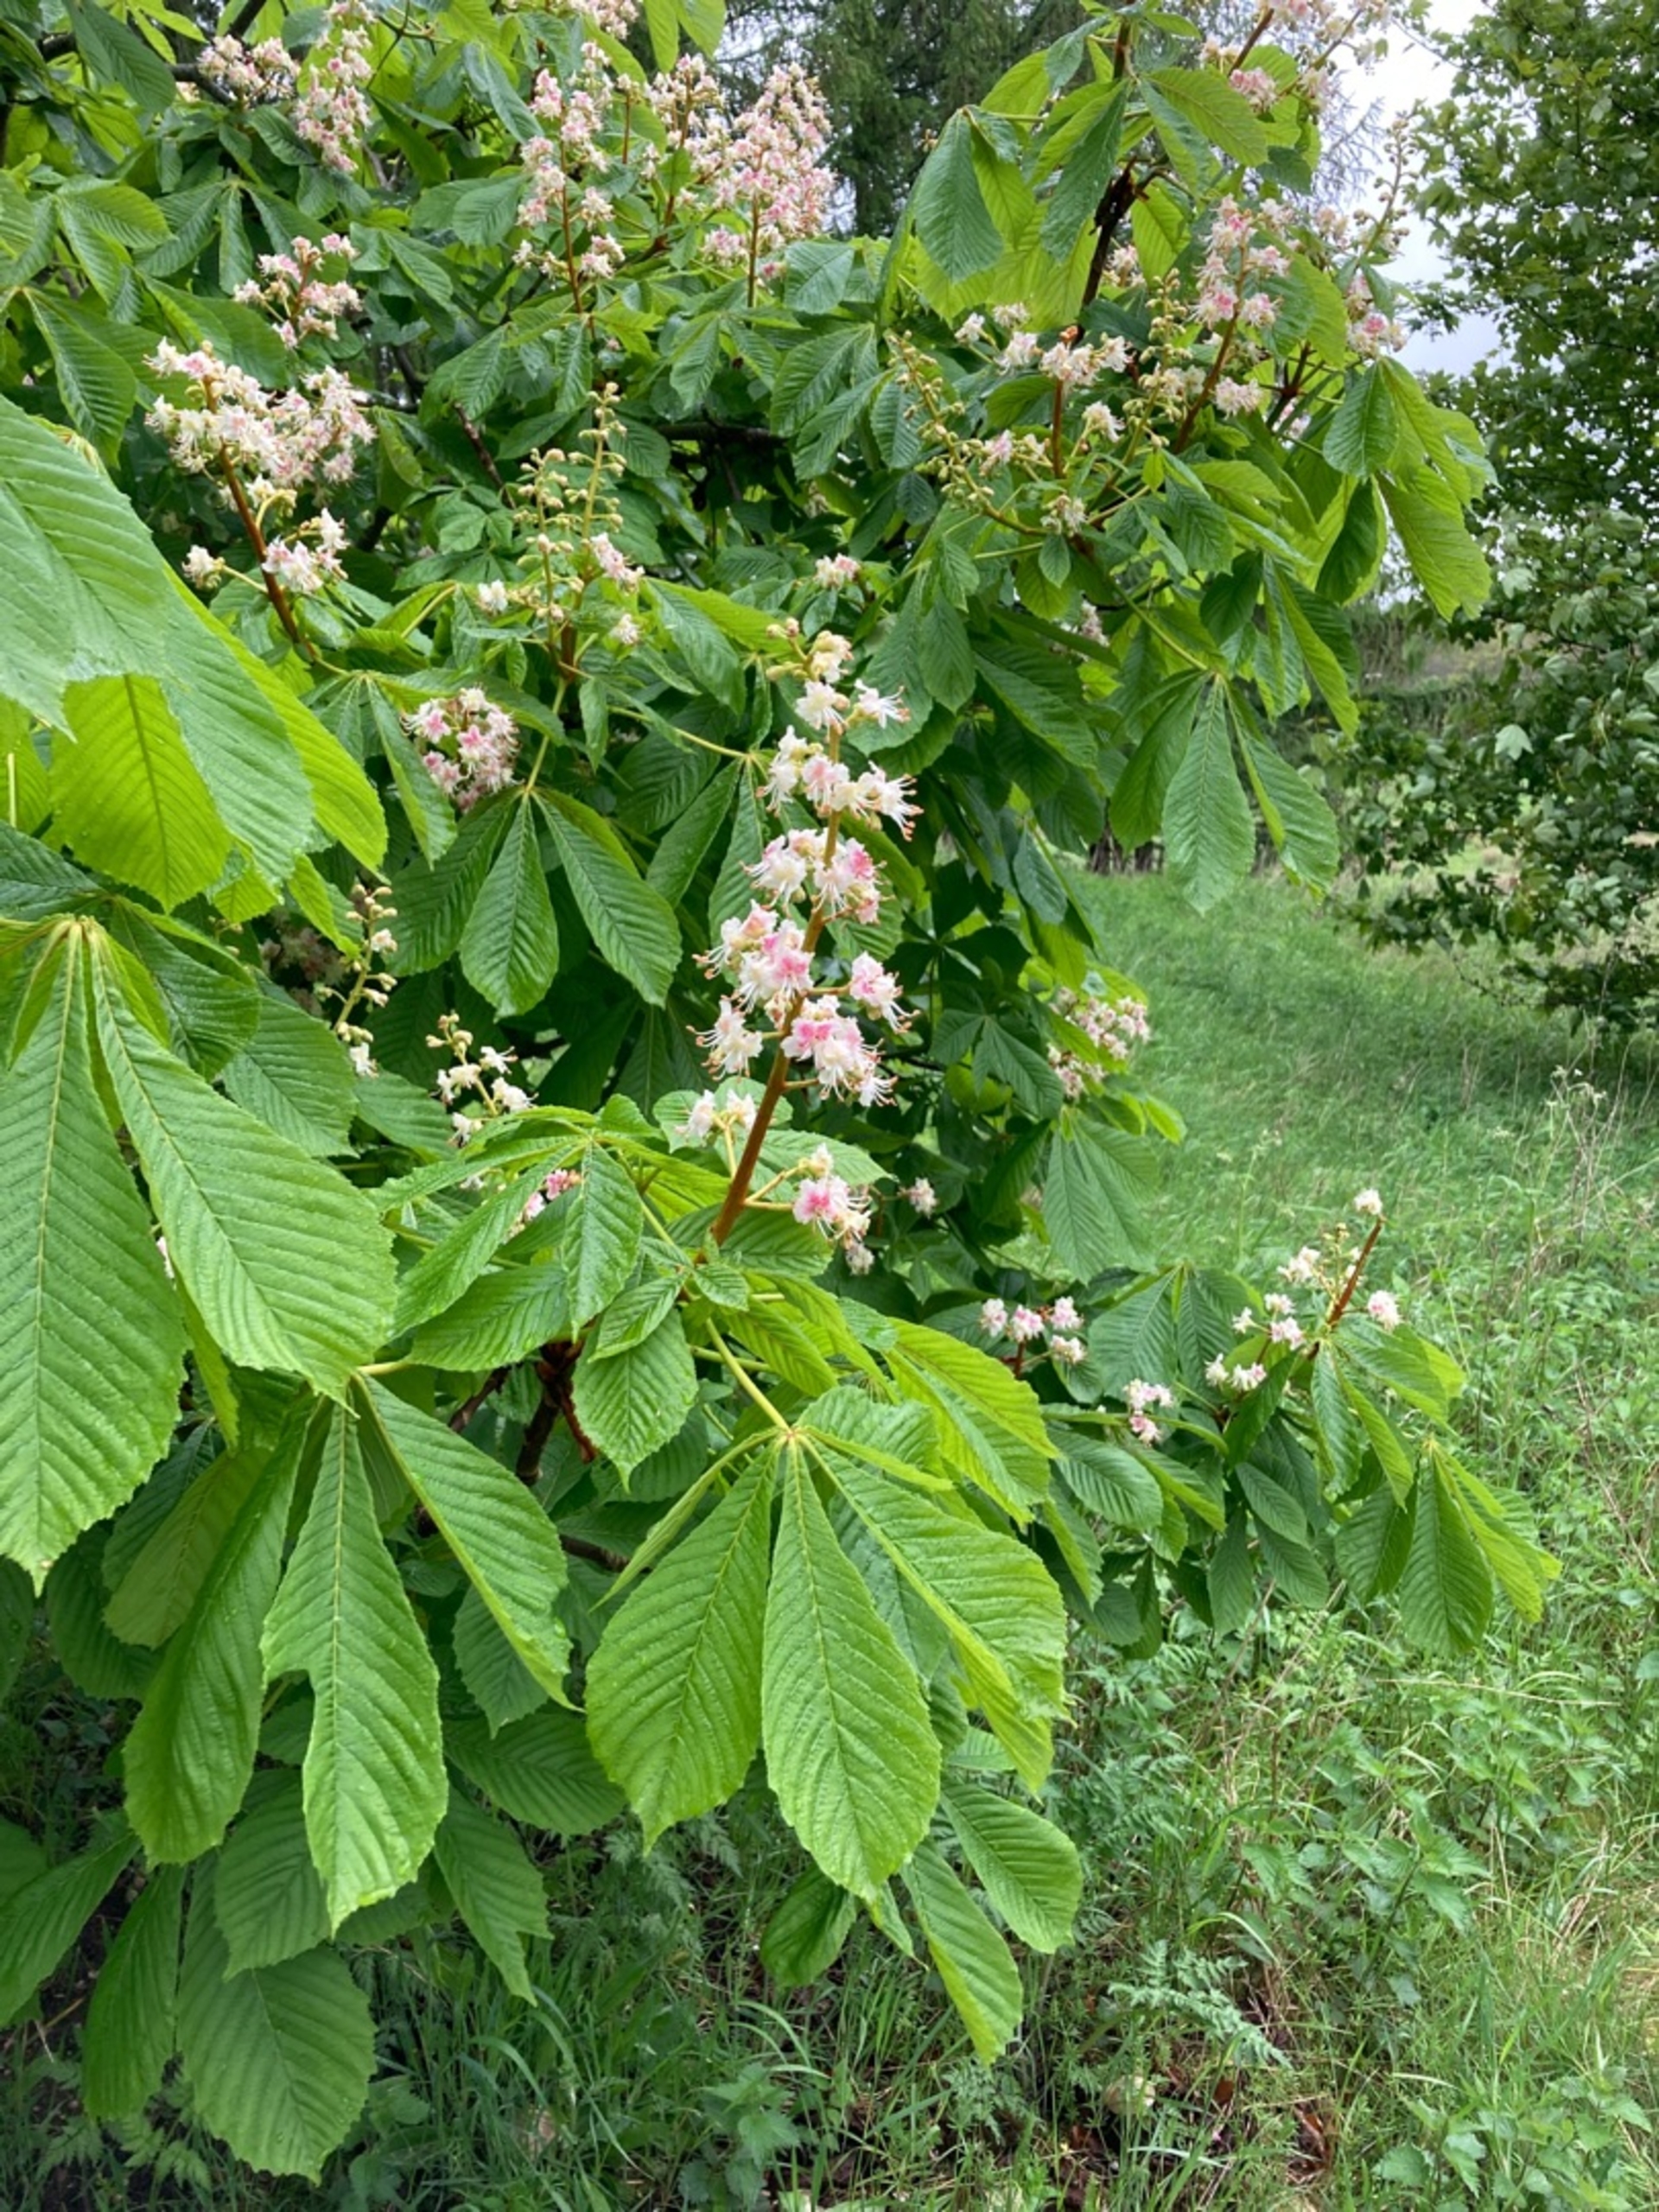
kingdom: Plantae
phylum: Tracheophyta
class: Magnoliopsida
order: Sapindales
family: Sapindaceae
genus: Aesculus
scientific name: Aesculus hippocastanum
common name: Hestekastanie
